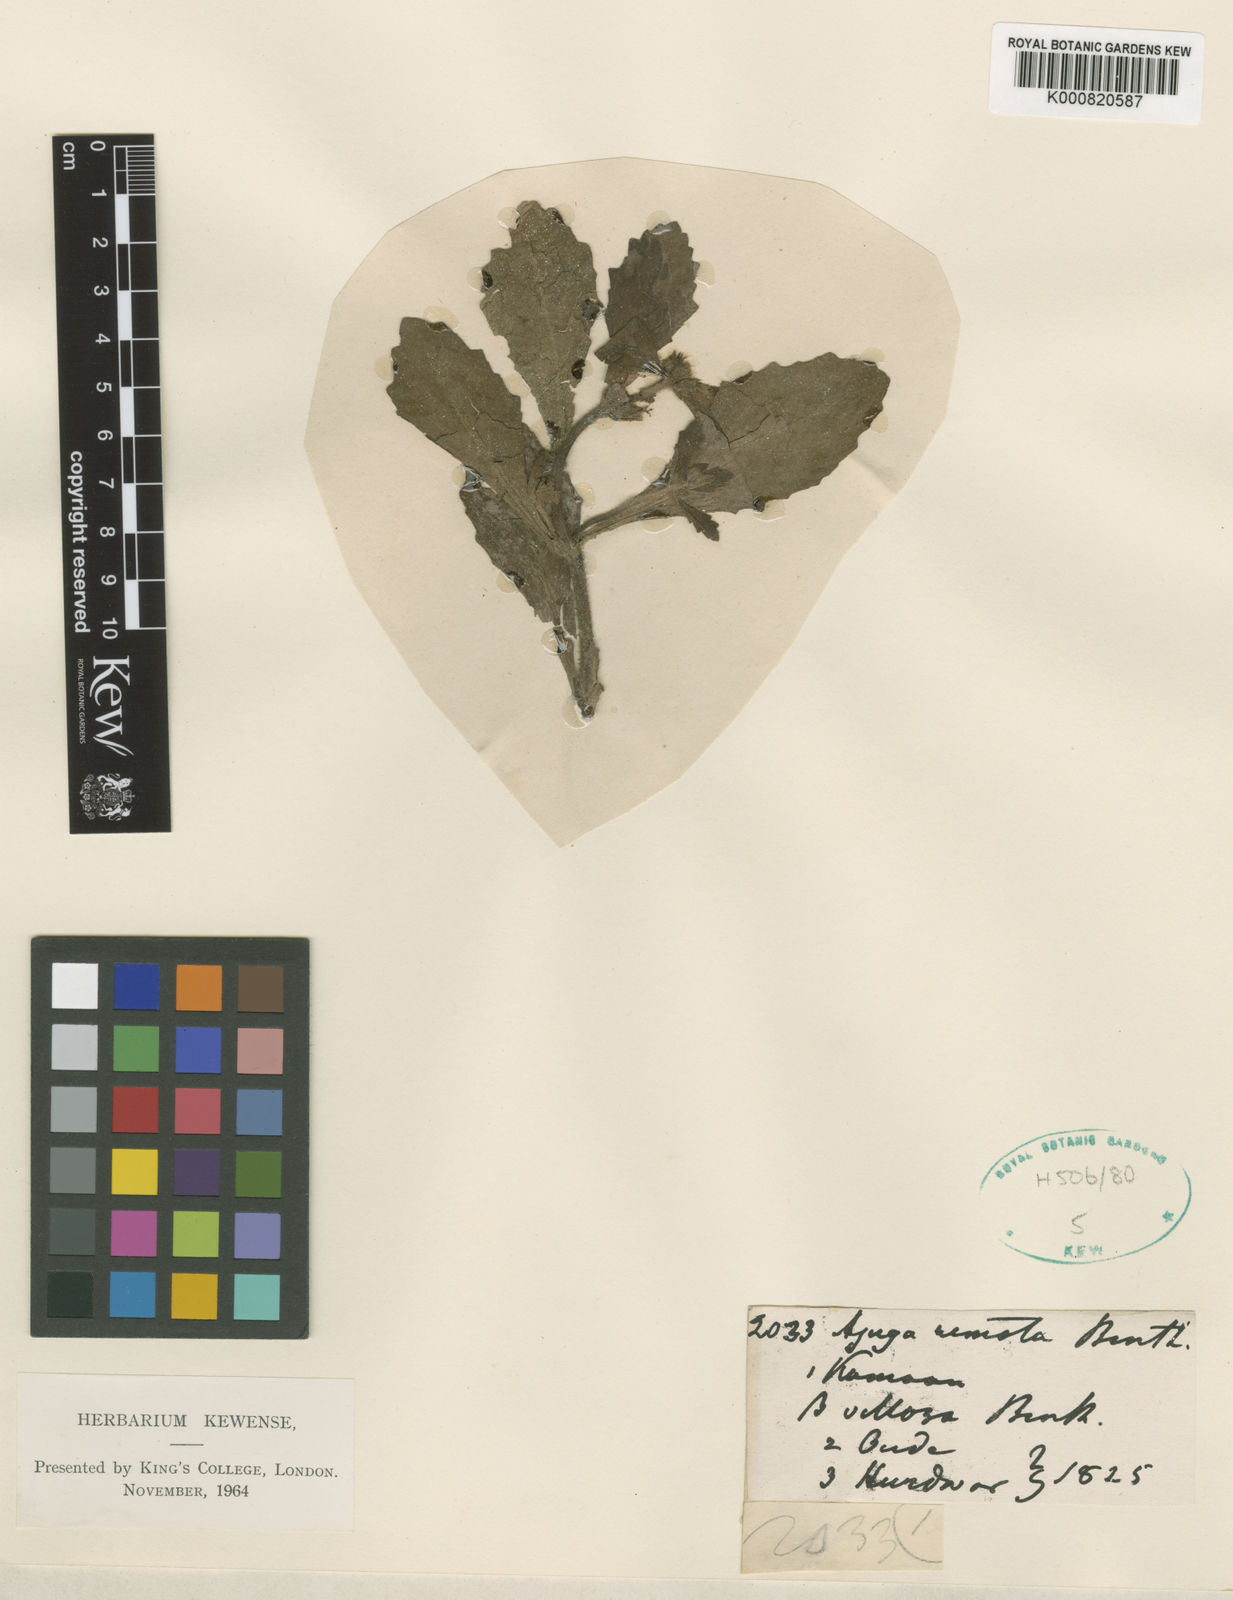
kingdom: Plantae
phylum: Tracheophyta
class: Magnoliopsida
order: Lamiales
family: Lamiaceae
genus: Ajuga
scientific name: Ajuga integrifolia
